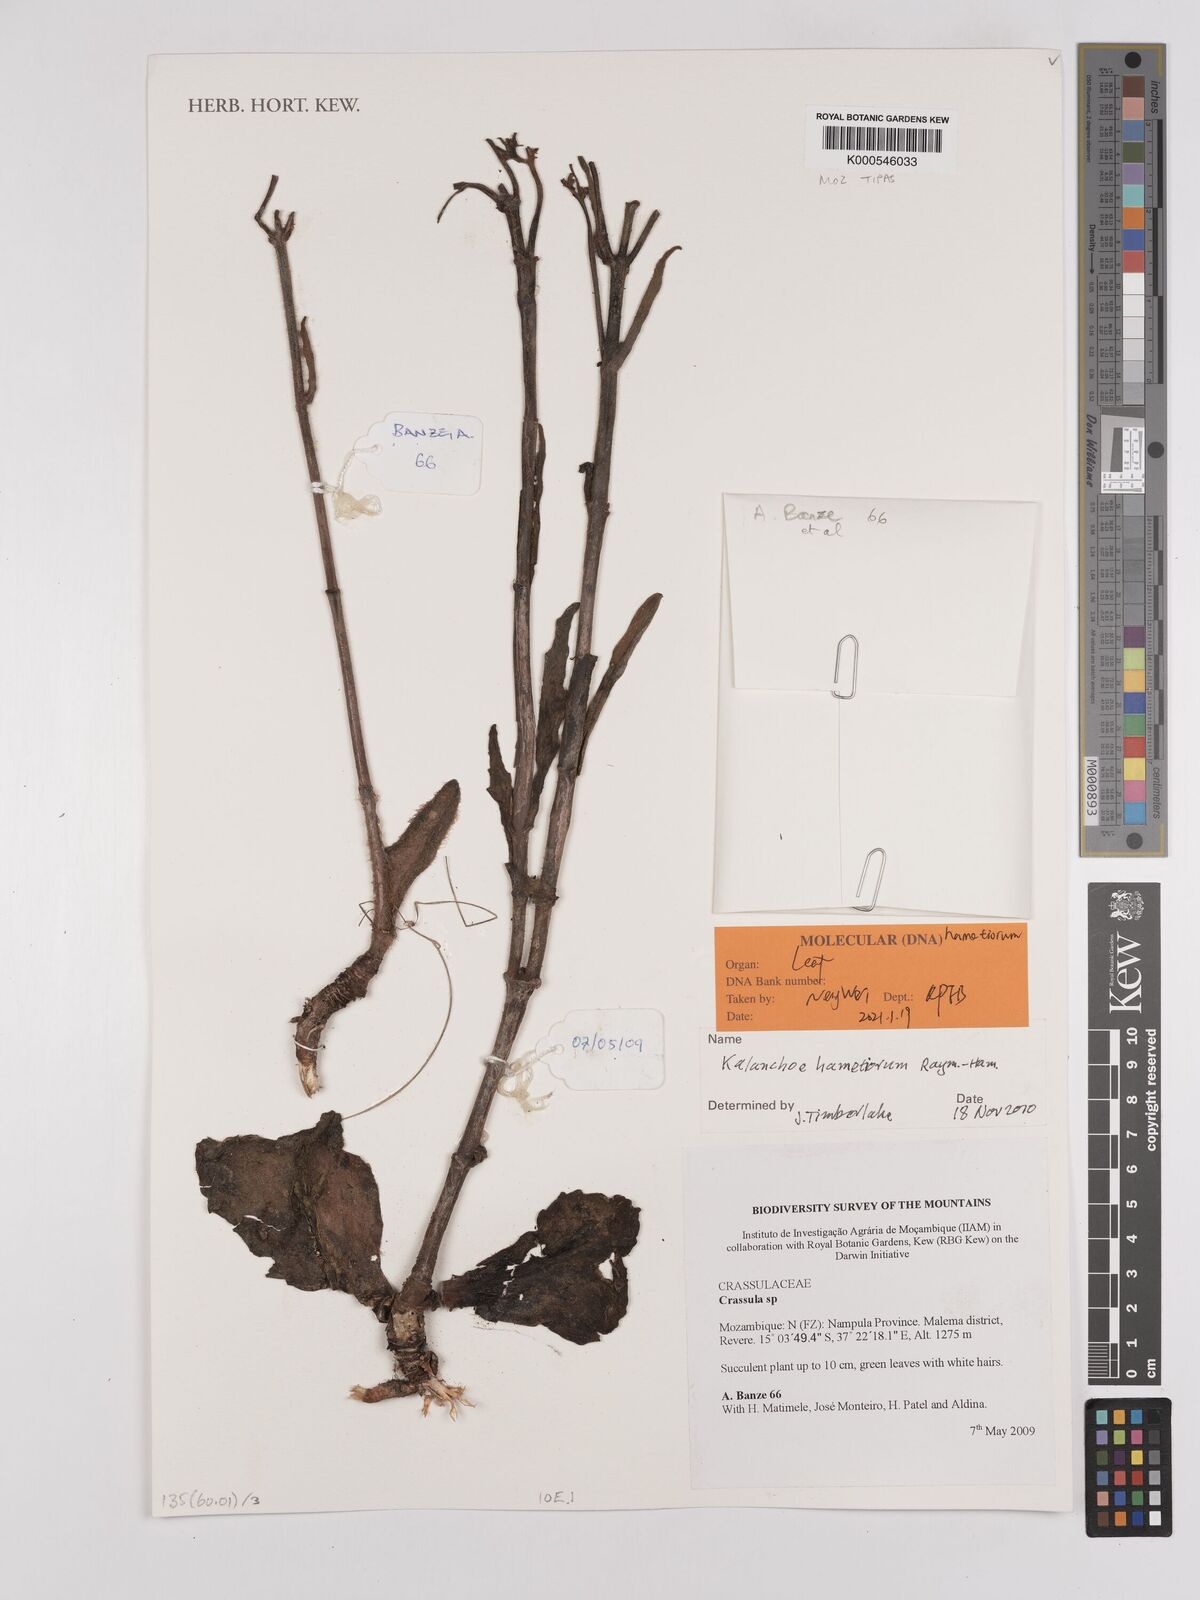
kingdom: Plantae
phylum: Tracheophyta
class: Magnoliopsida
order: Saxifragales
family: Crassulaceae
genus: Kalanchoe
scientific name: Kalanchoe
